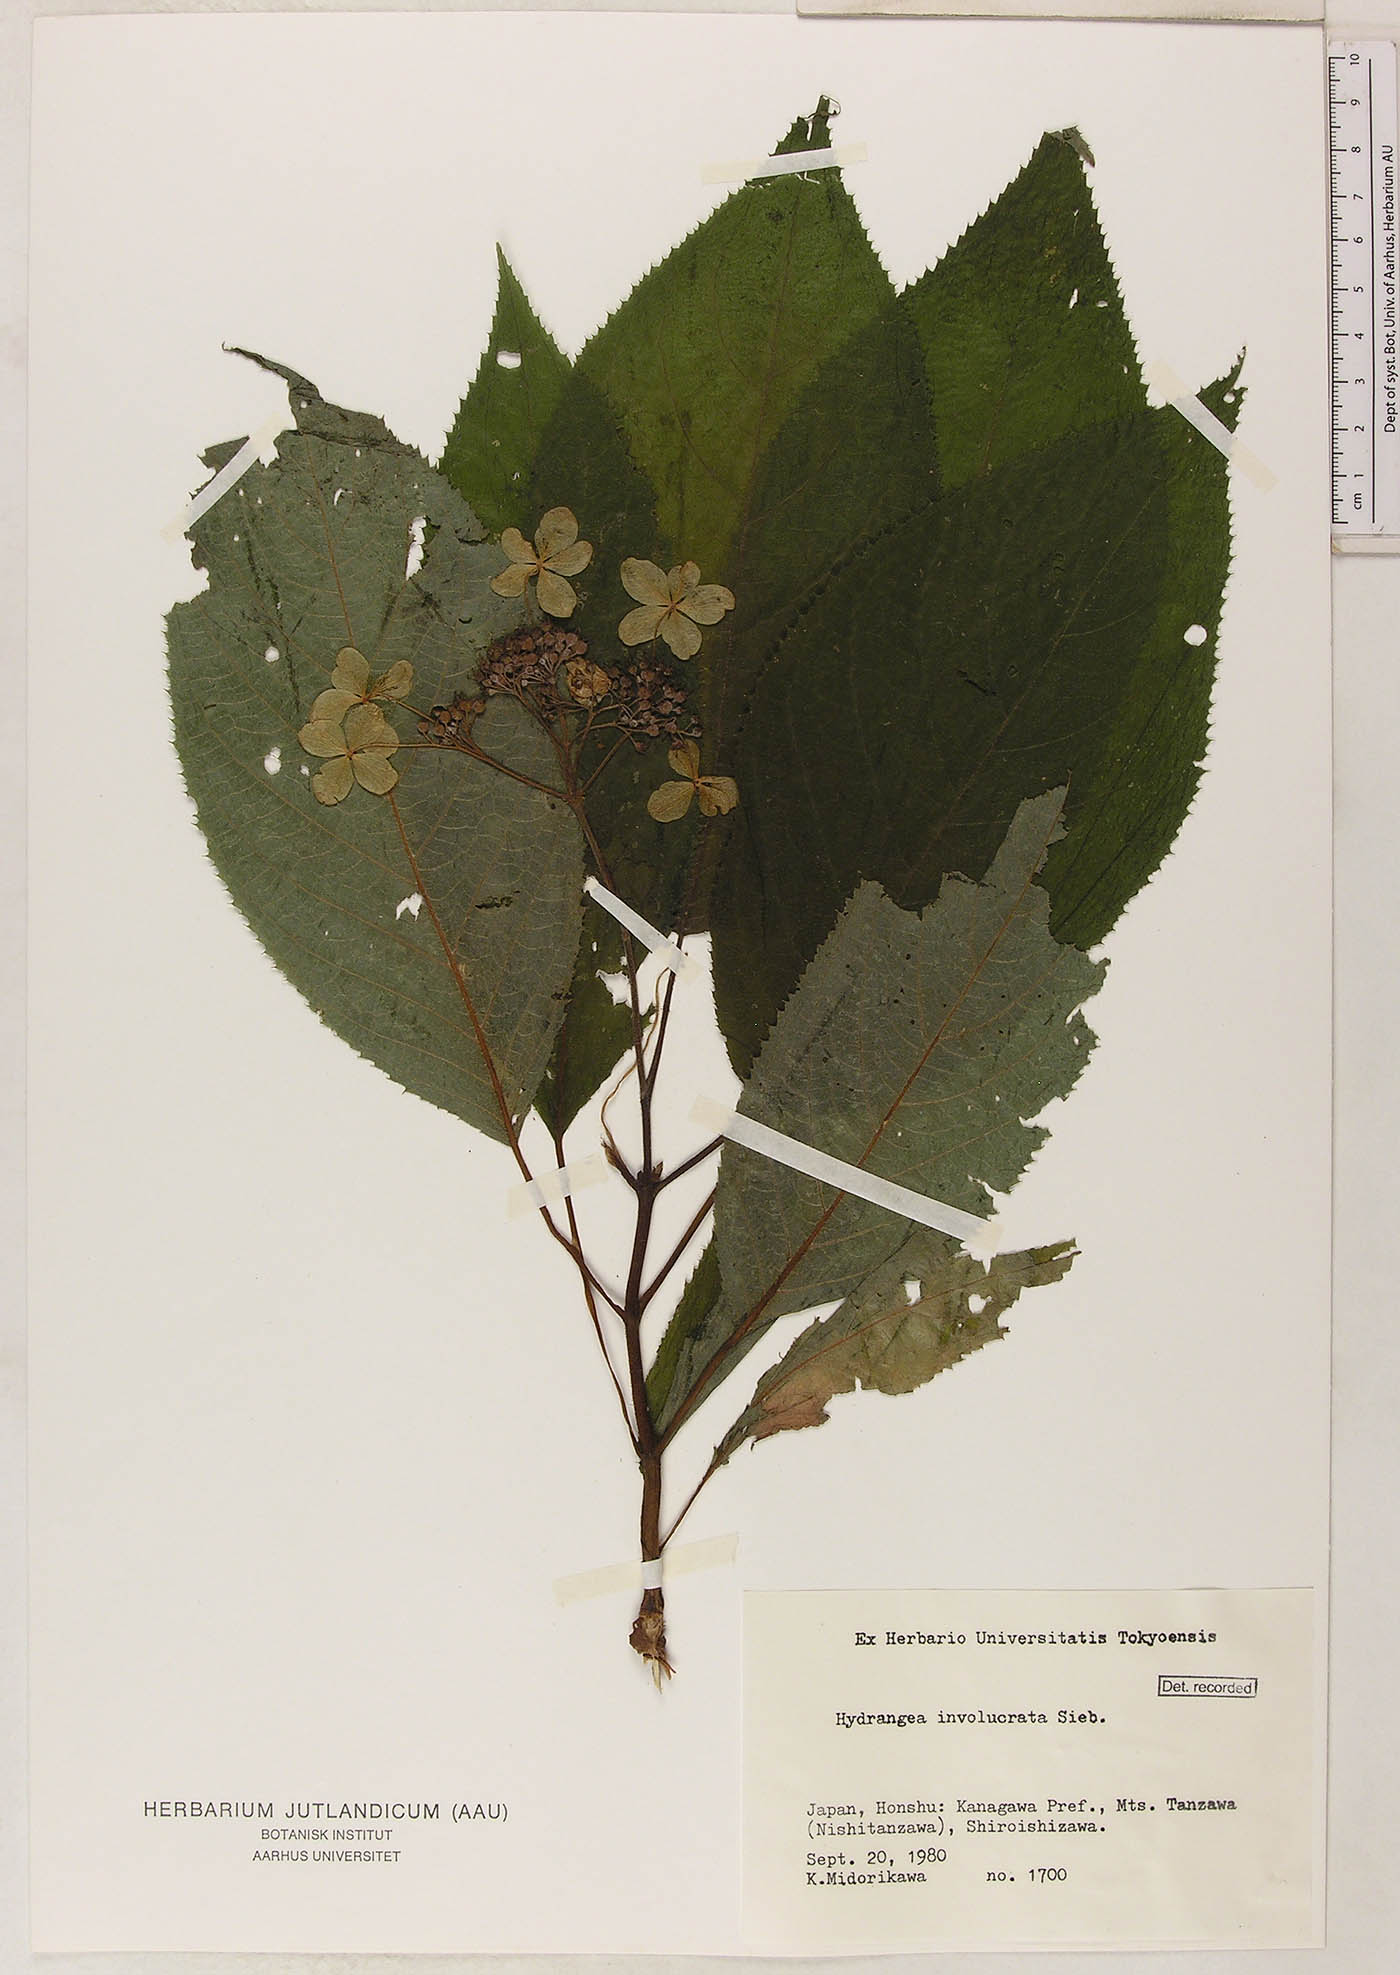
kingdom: Plantae
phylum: Tracheophyta
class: Magnoliopsida
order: Cornales
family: Hydrangeaceae
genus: Hydrangea
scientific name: Hydrangea involucrata
